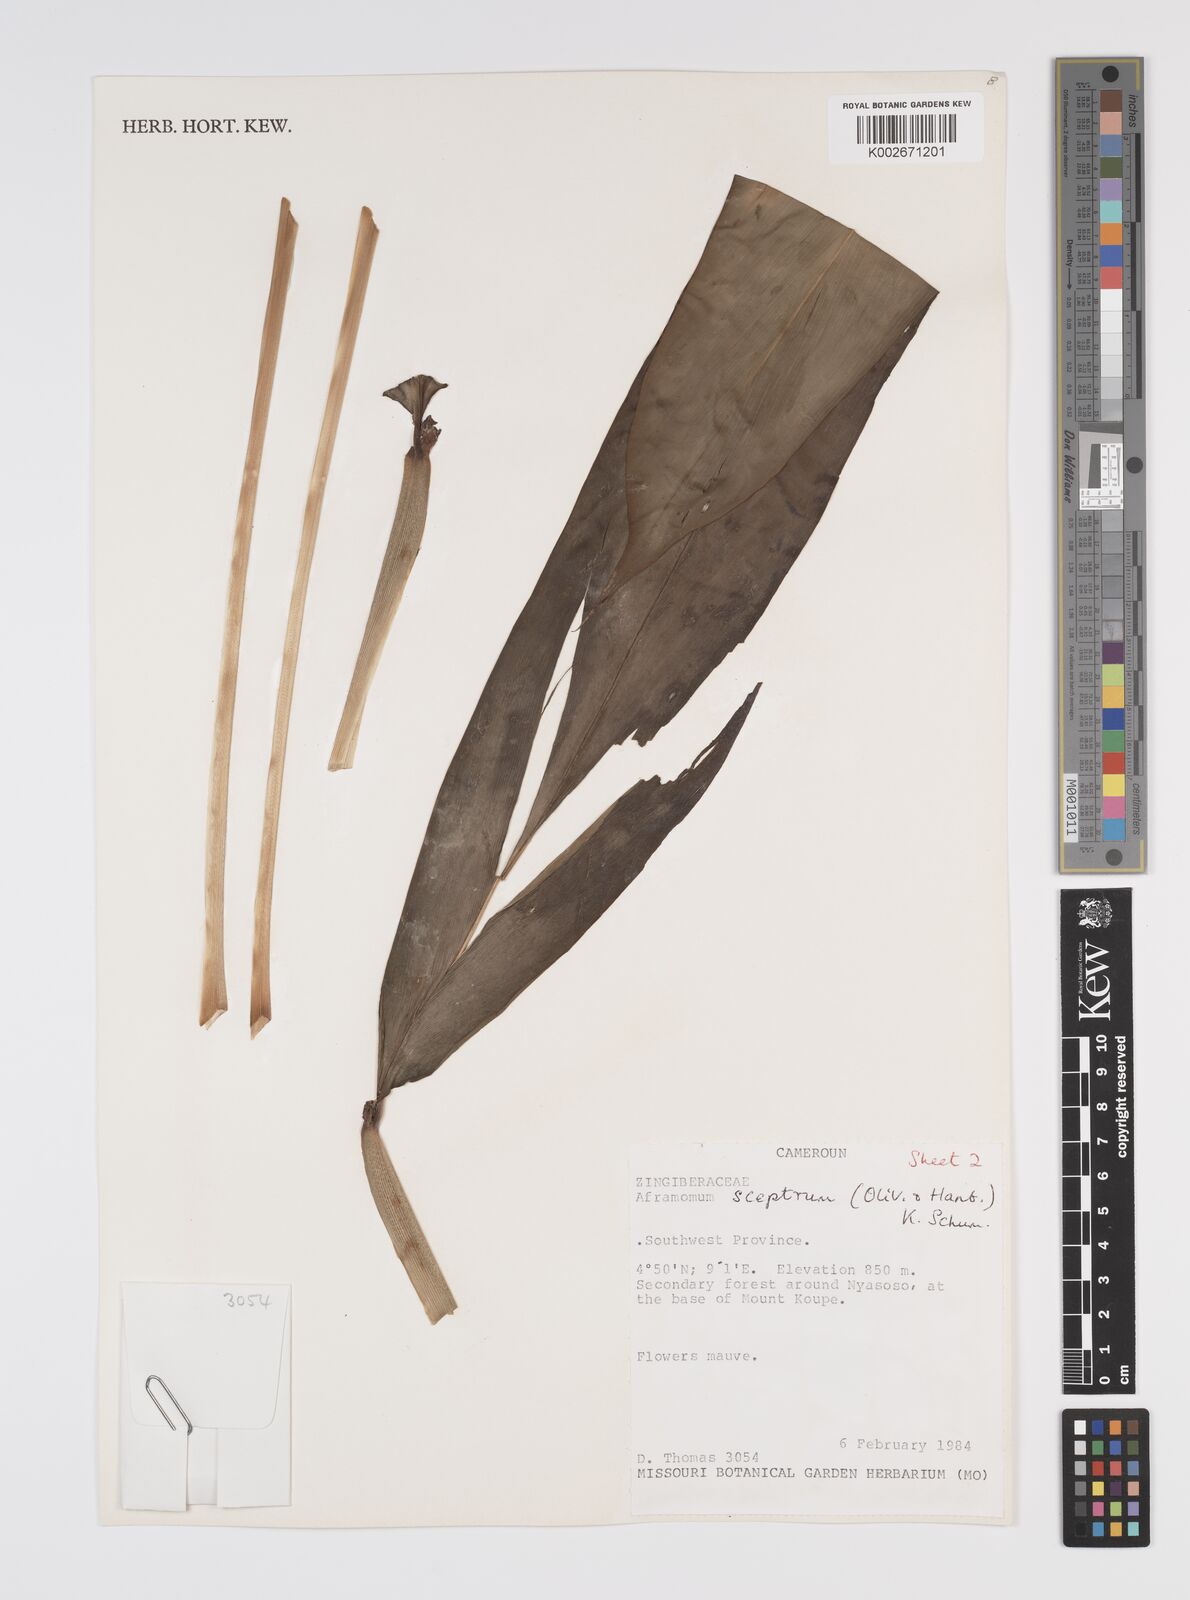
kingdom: Plantae
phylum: Tracheophyta
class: Liliopsida
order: Zingiberales
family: Zingiberaceae
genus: Aframomum
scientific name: Aframomum leptolepis
